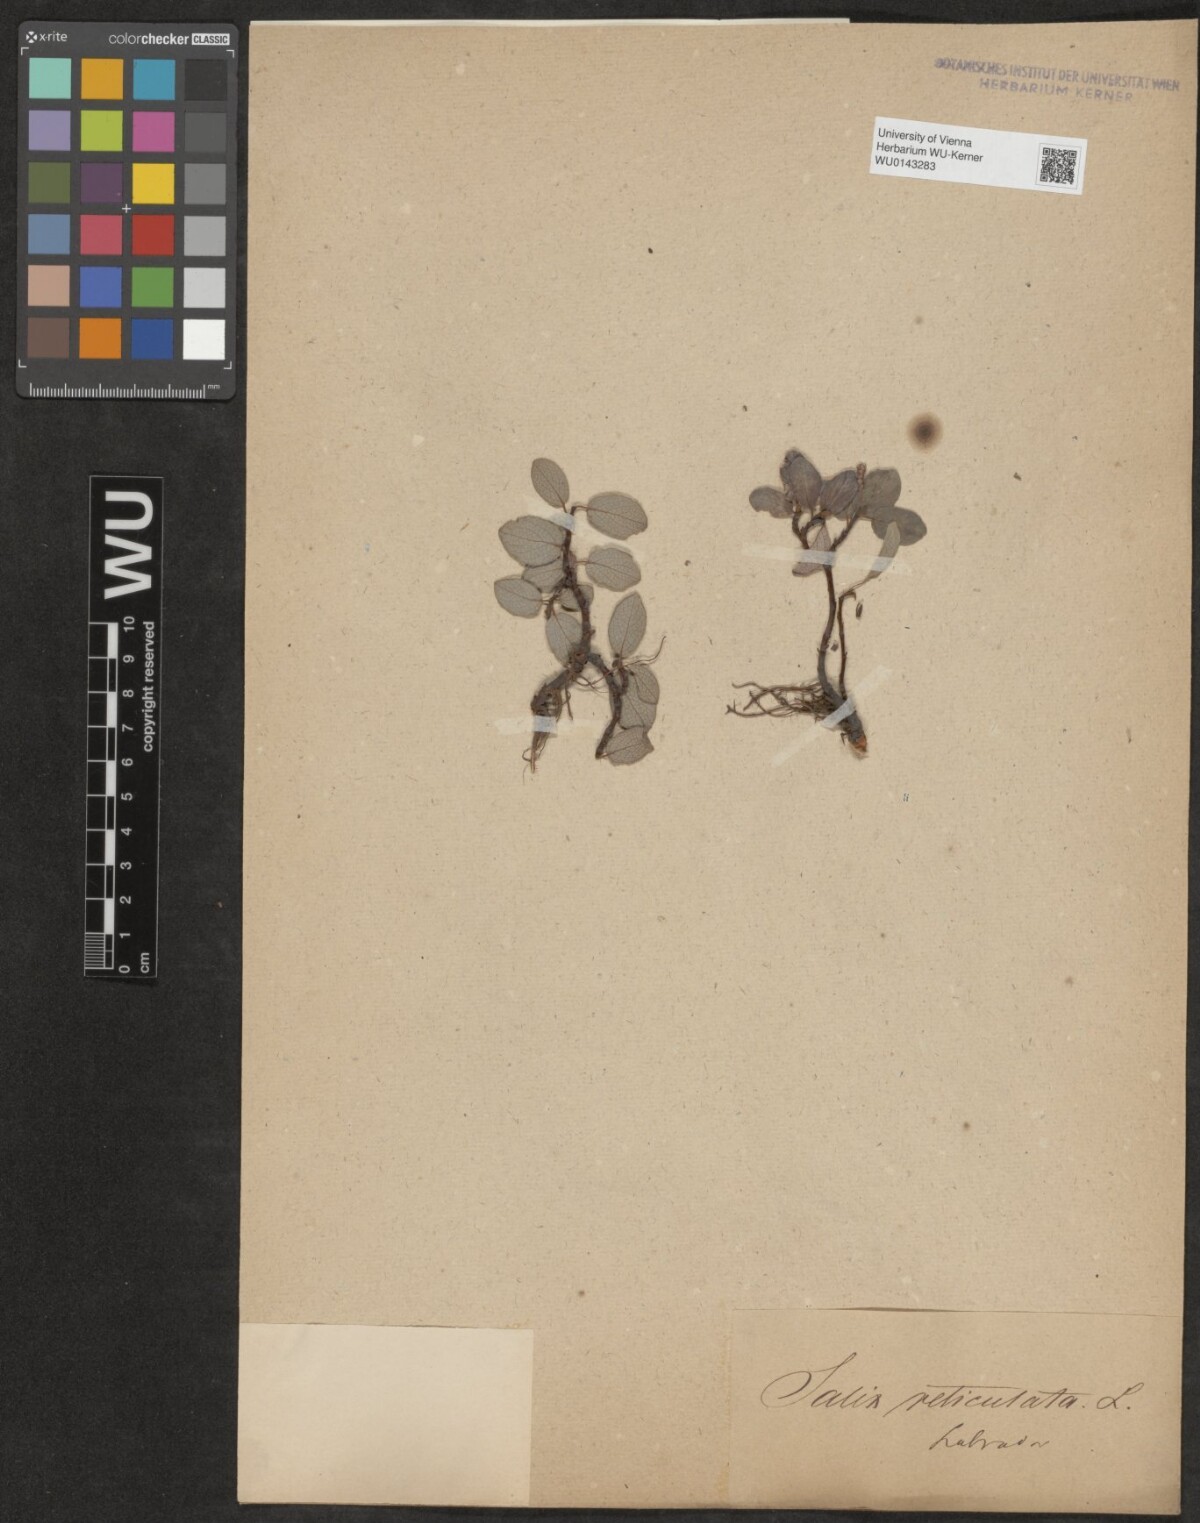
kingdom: Plantae
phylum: Tracheophyta
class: Magnoliopsida
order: Malpighiales
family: Salicaceae
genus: Salix
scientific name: Salix reticulata
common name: Net-leaved willow
